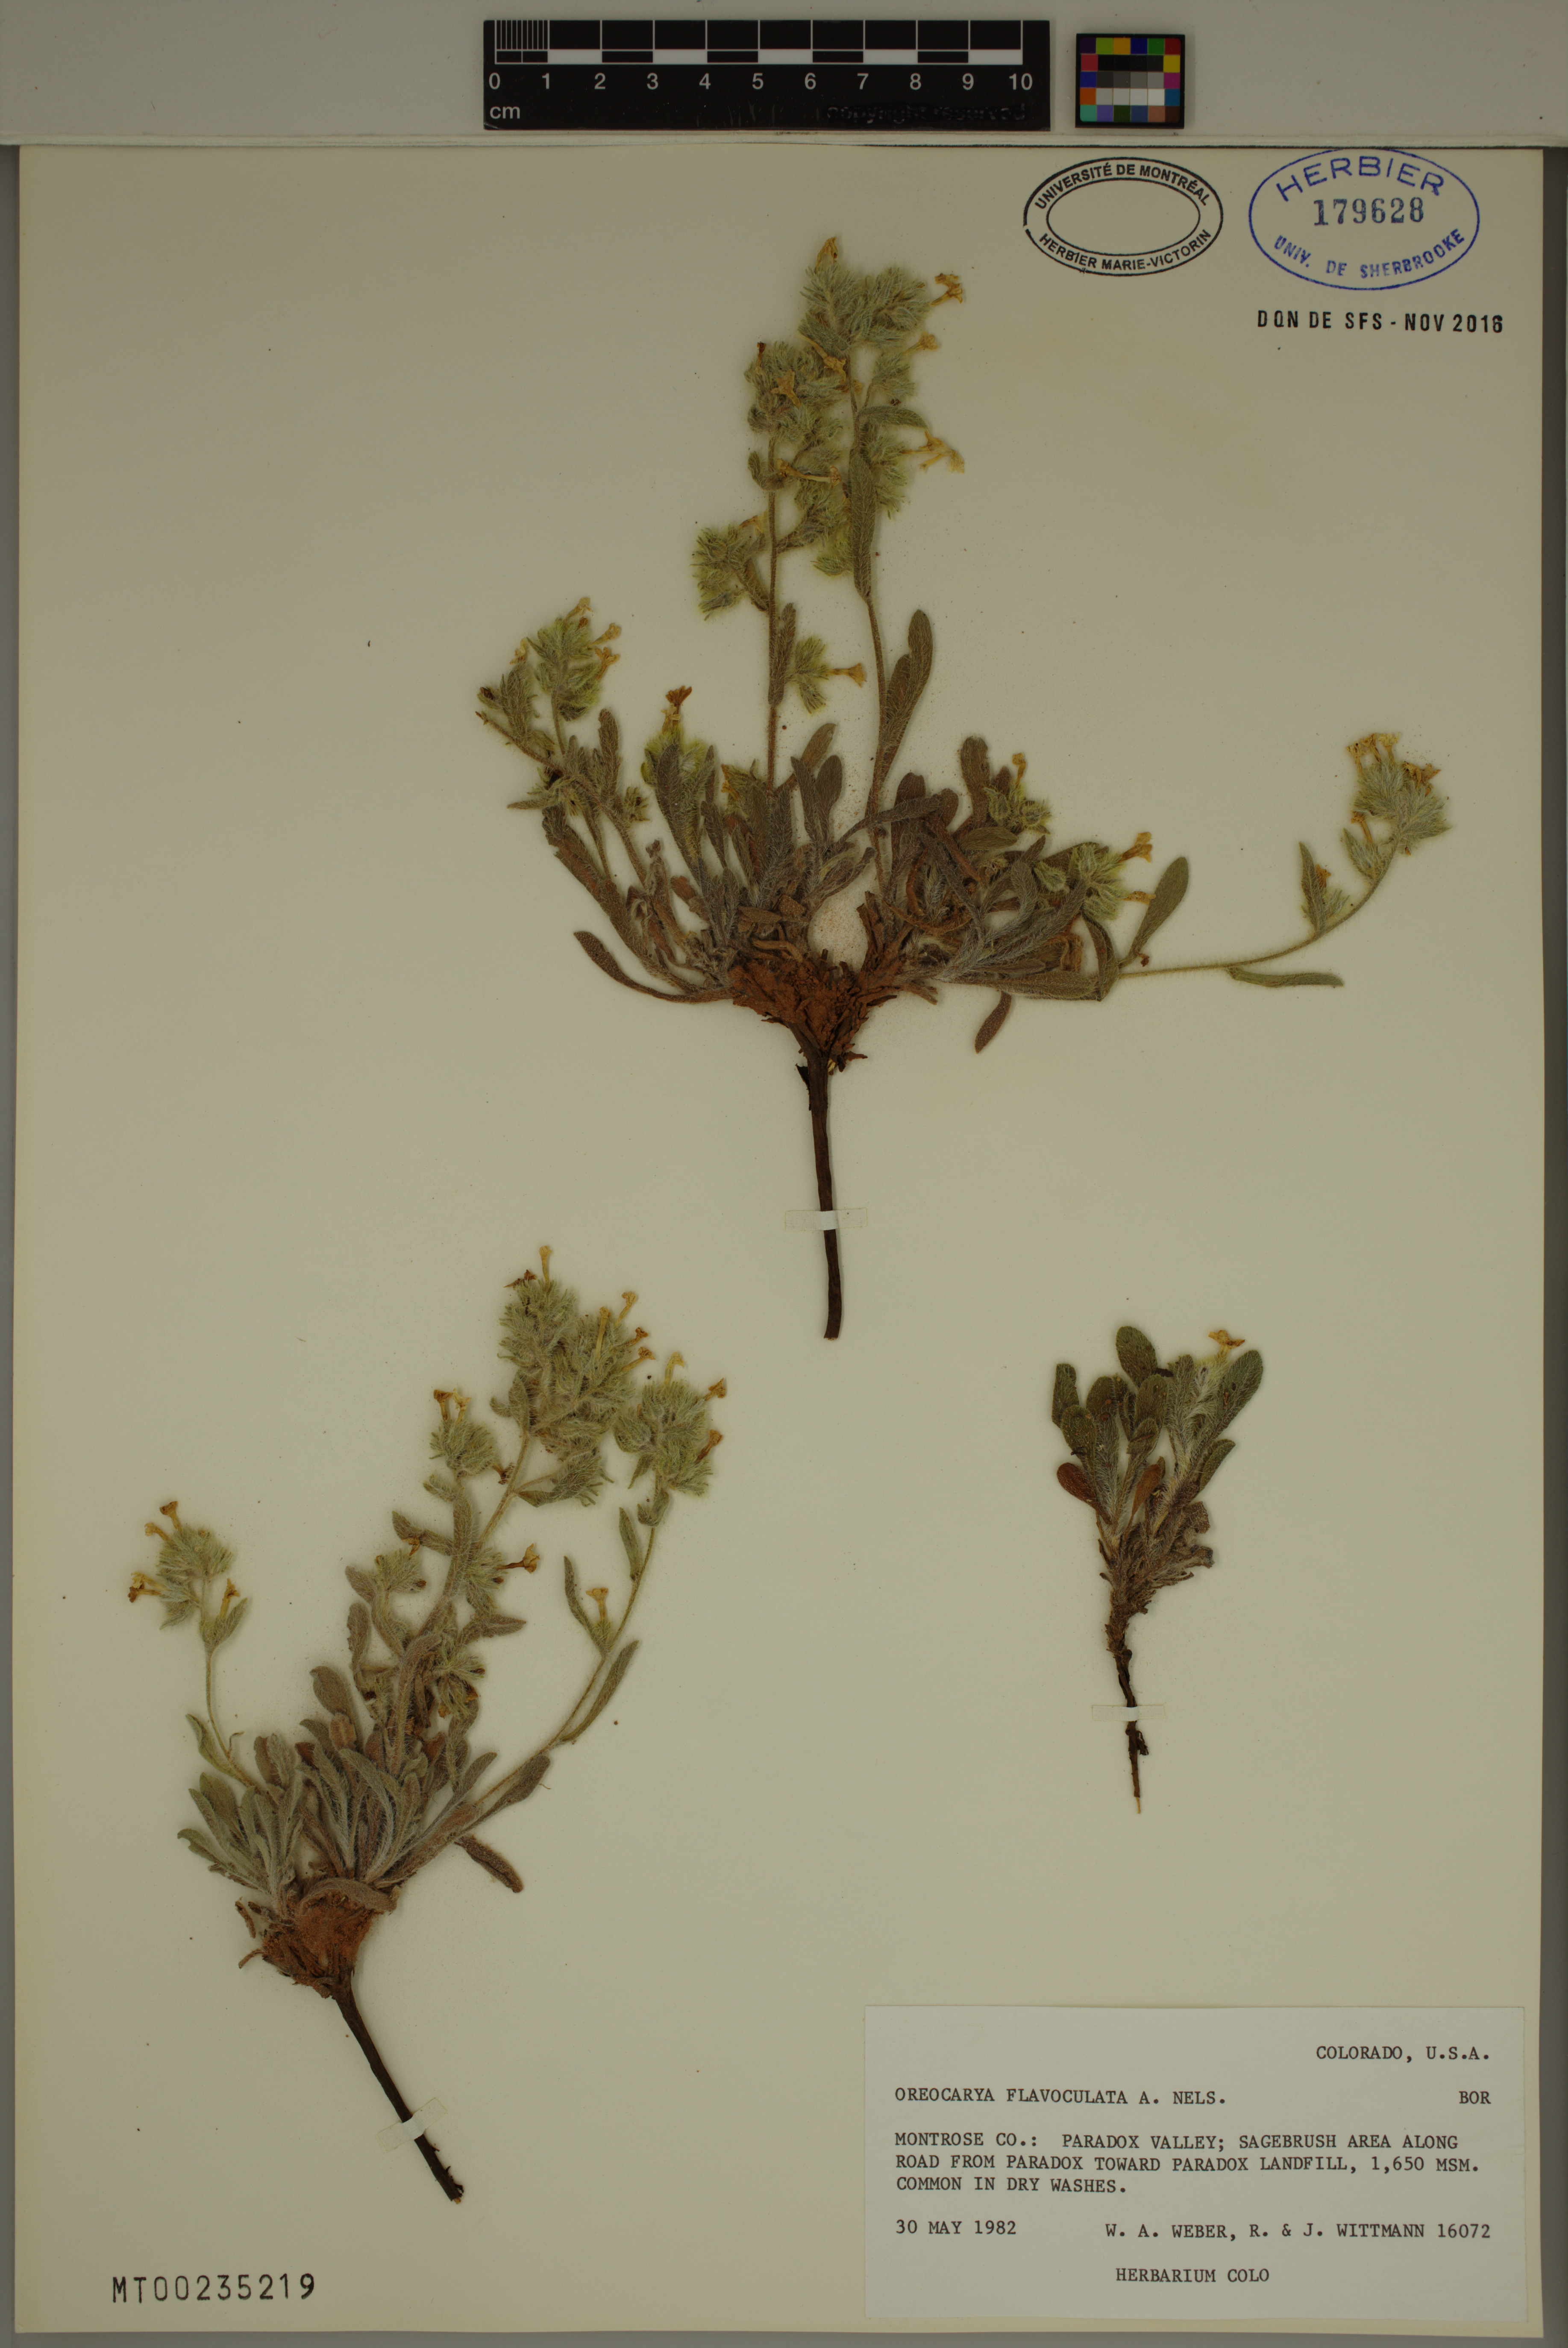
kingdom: Plantae
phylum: Tracheophyta
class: Magnoliopsida
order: Boraginales
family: Boraginaceae
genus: Oreocarya
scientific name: Oreocarya flavoculata
